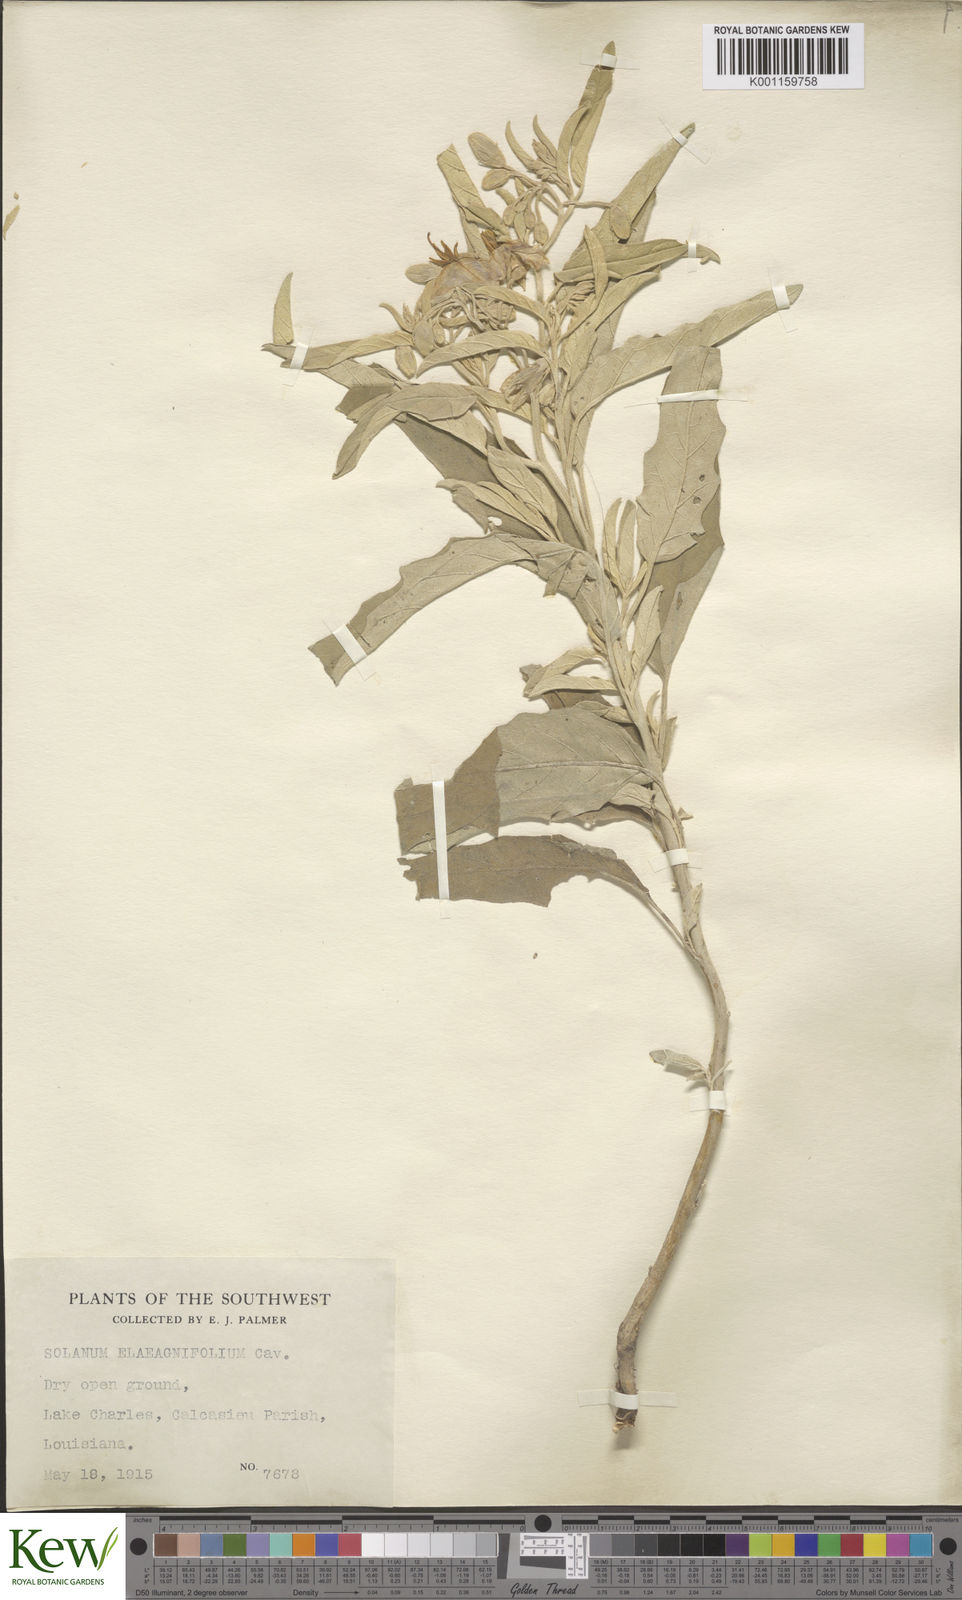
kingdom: Plantae
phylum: Tracheophyta
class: Magnoliopsida
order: Solanales
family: Solanaceae
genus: Solanum
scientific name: Solanum
